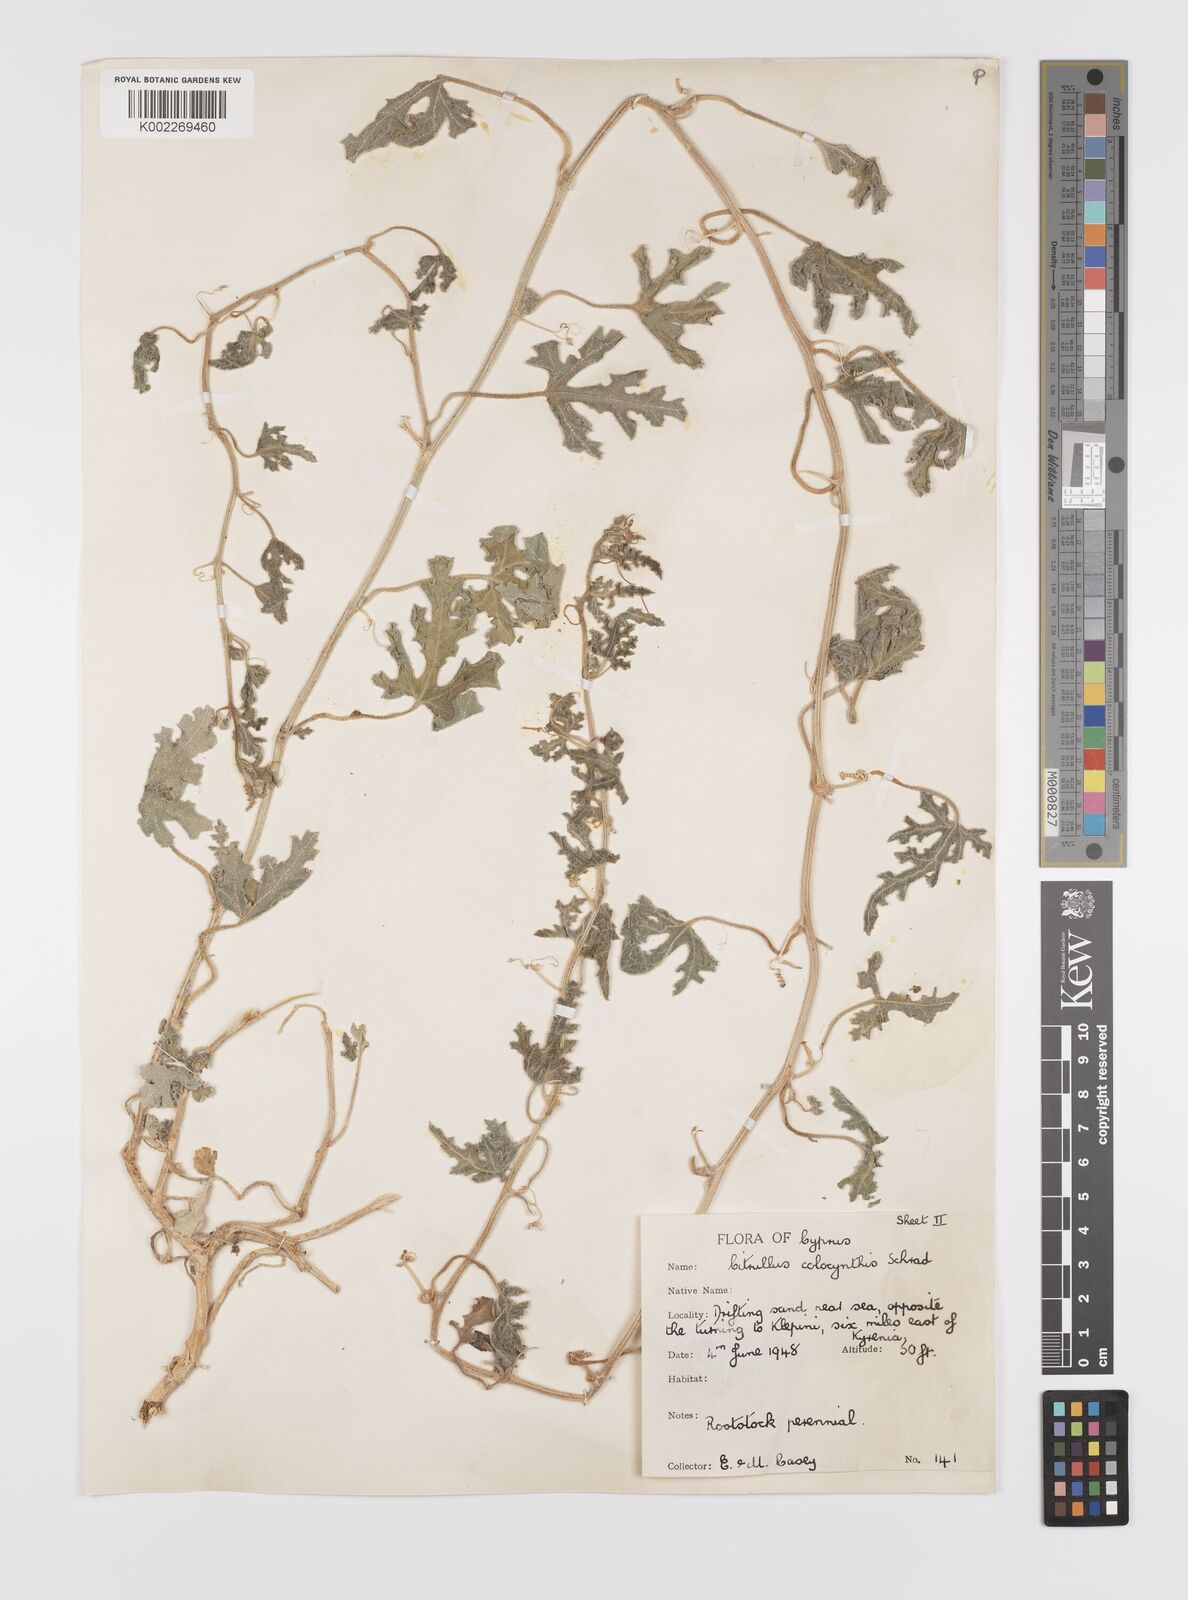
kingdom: Plantae
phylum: Tracheophyta
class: Magnoliopsida
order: Cucurbitales
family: Cucurbitaceae
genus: Citrullus
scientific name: Citrullus colocynthis
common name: Colocynth
